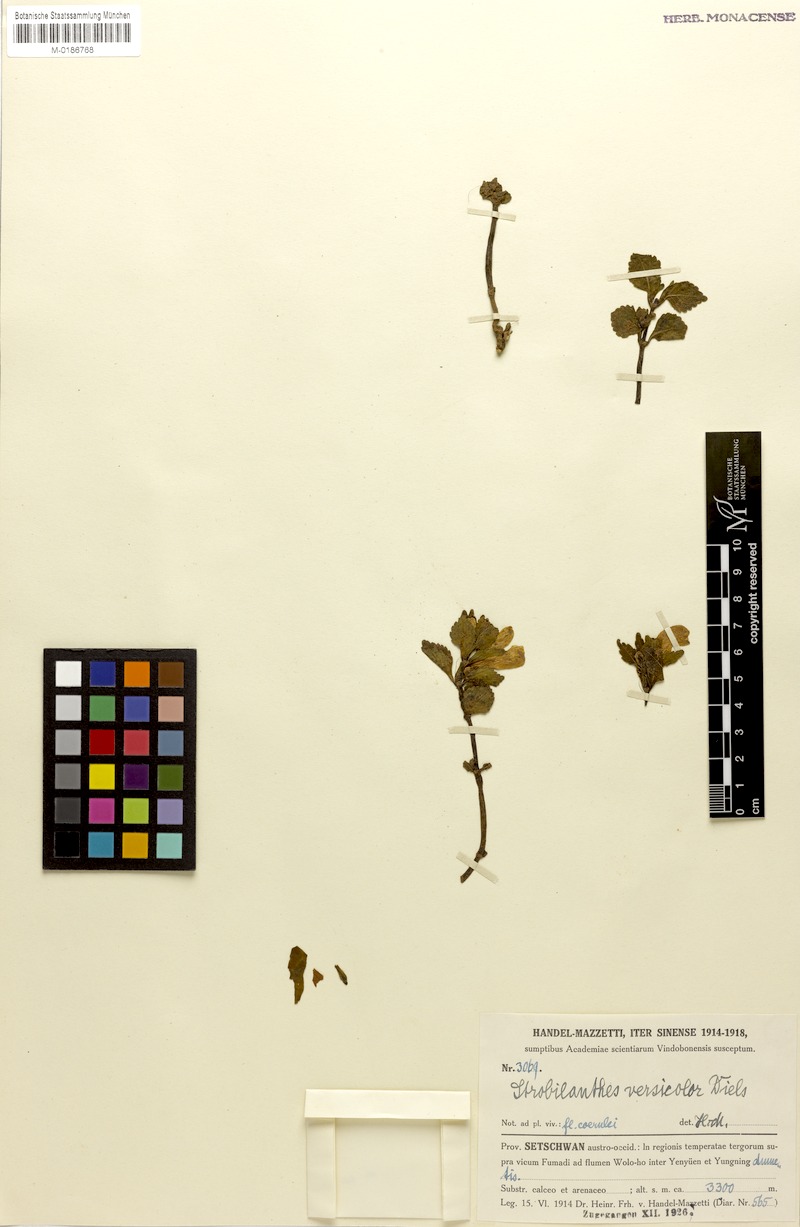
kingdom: Plantae
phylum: Tracheophyta
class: Magnoliopsida
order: Lamiales
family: Acanthaceae
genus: Strobilanthes
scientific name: Strobilanthes versicolor
